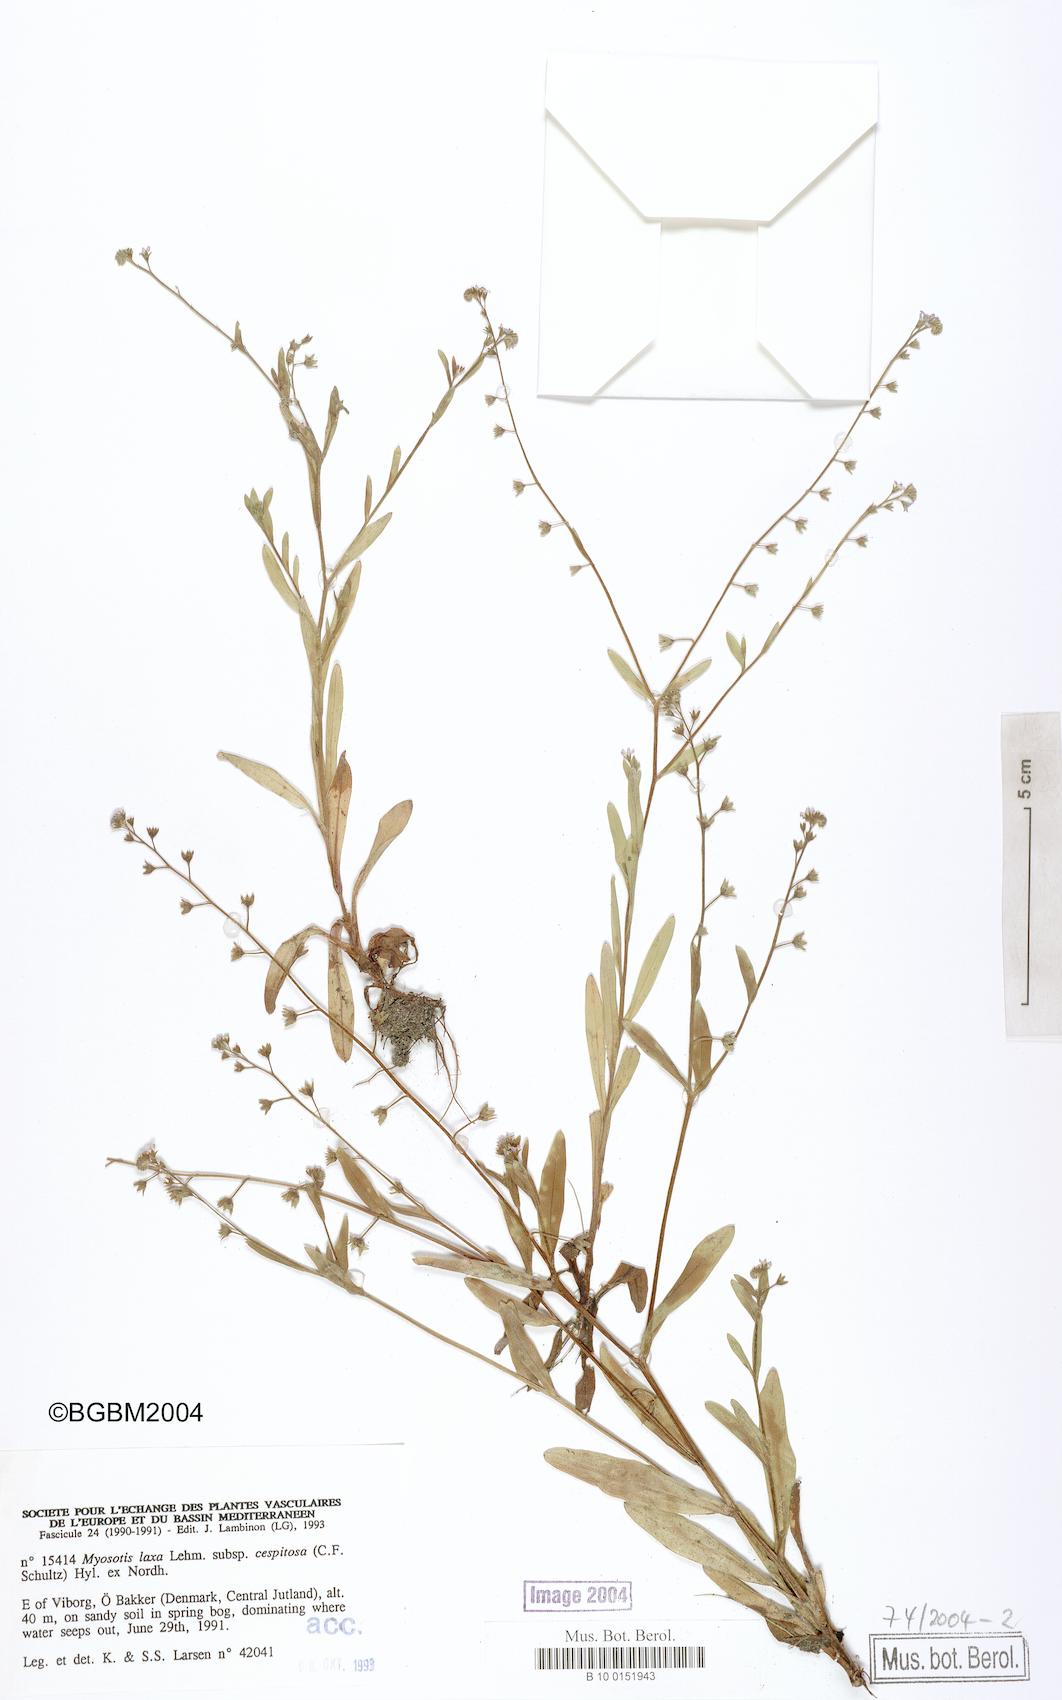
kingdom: Plantae
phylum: Tracheophyta
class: Magnoliopsida
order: Boraginales
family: Boraginaceae
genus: Myosotis
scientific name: Myosotis laxa
